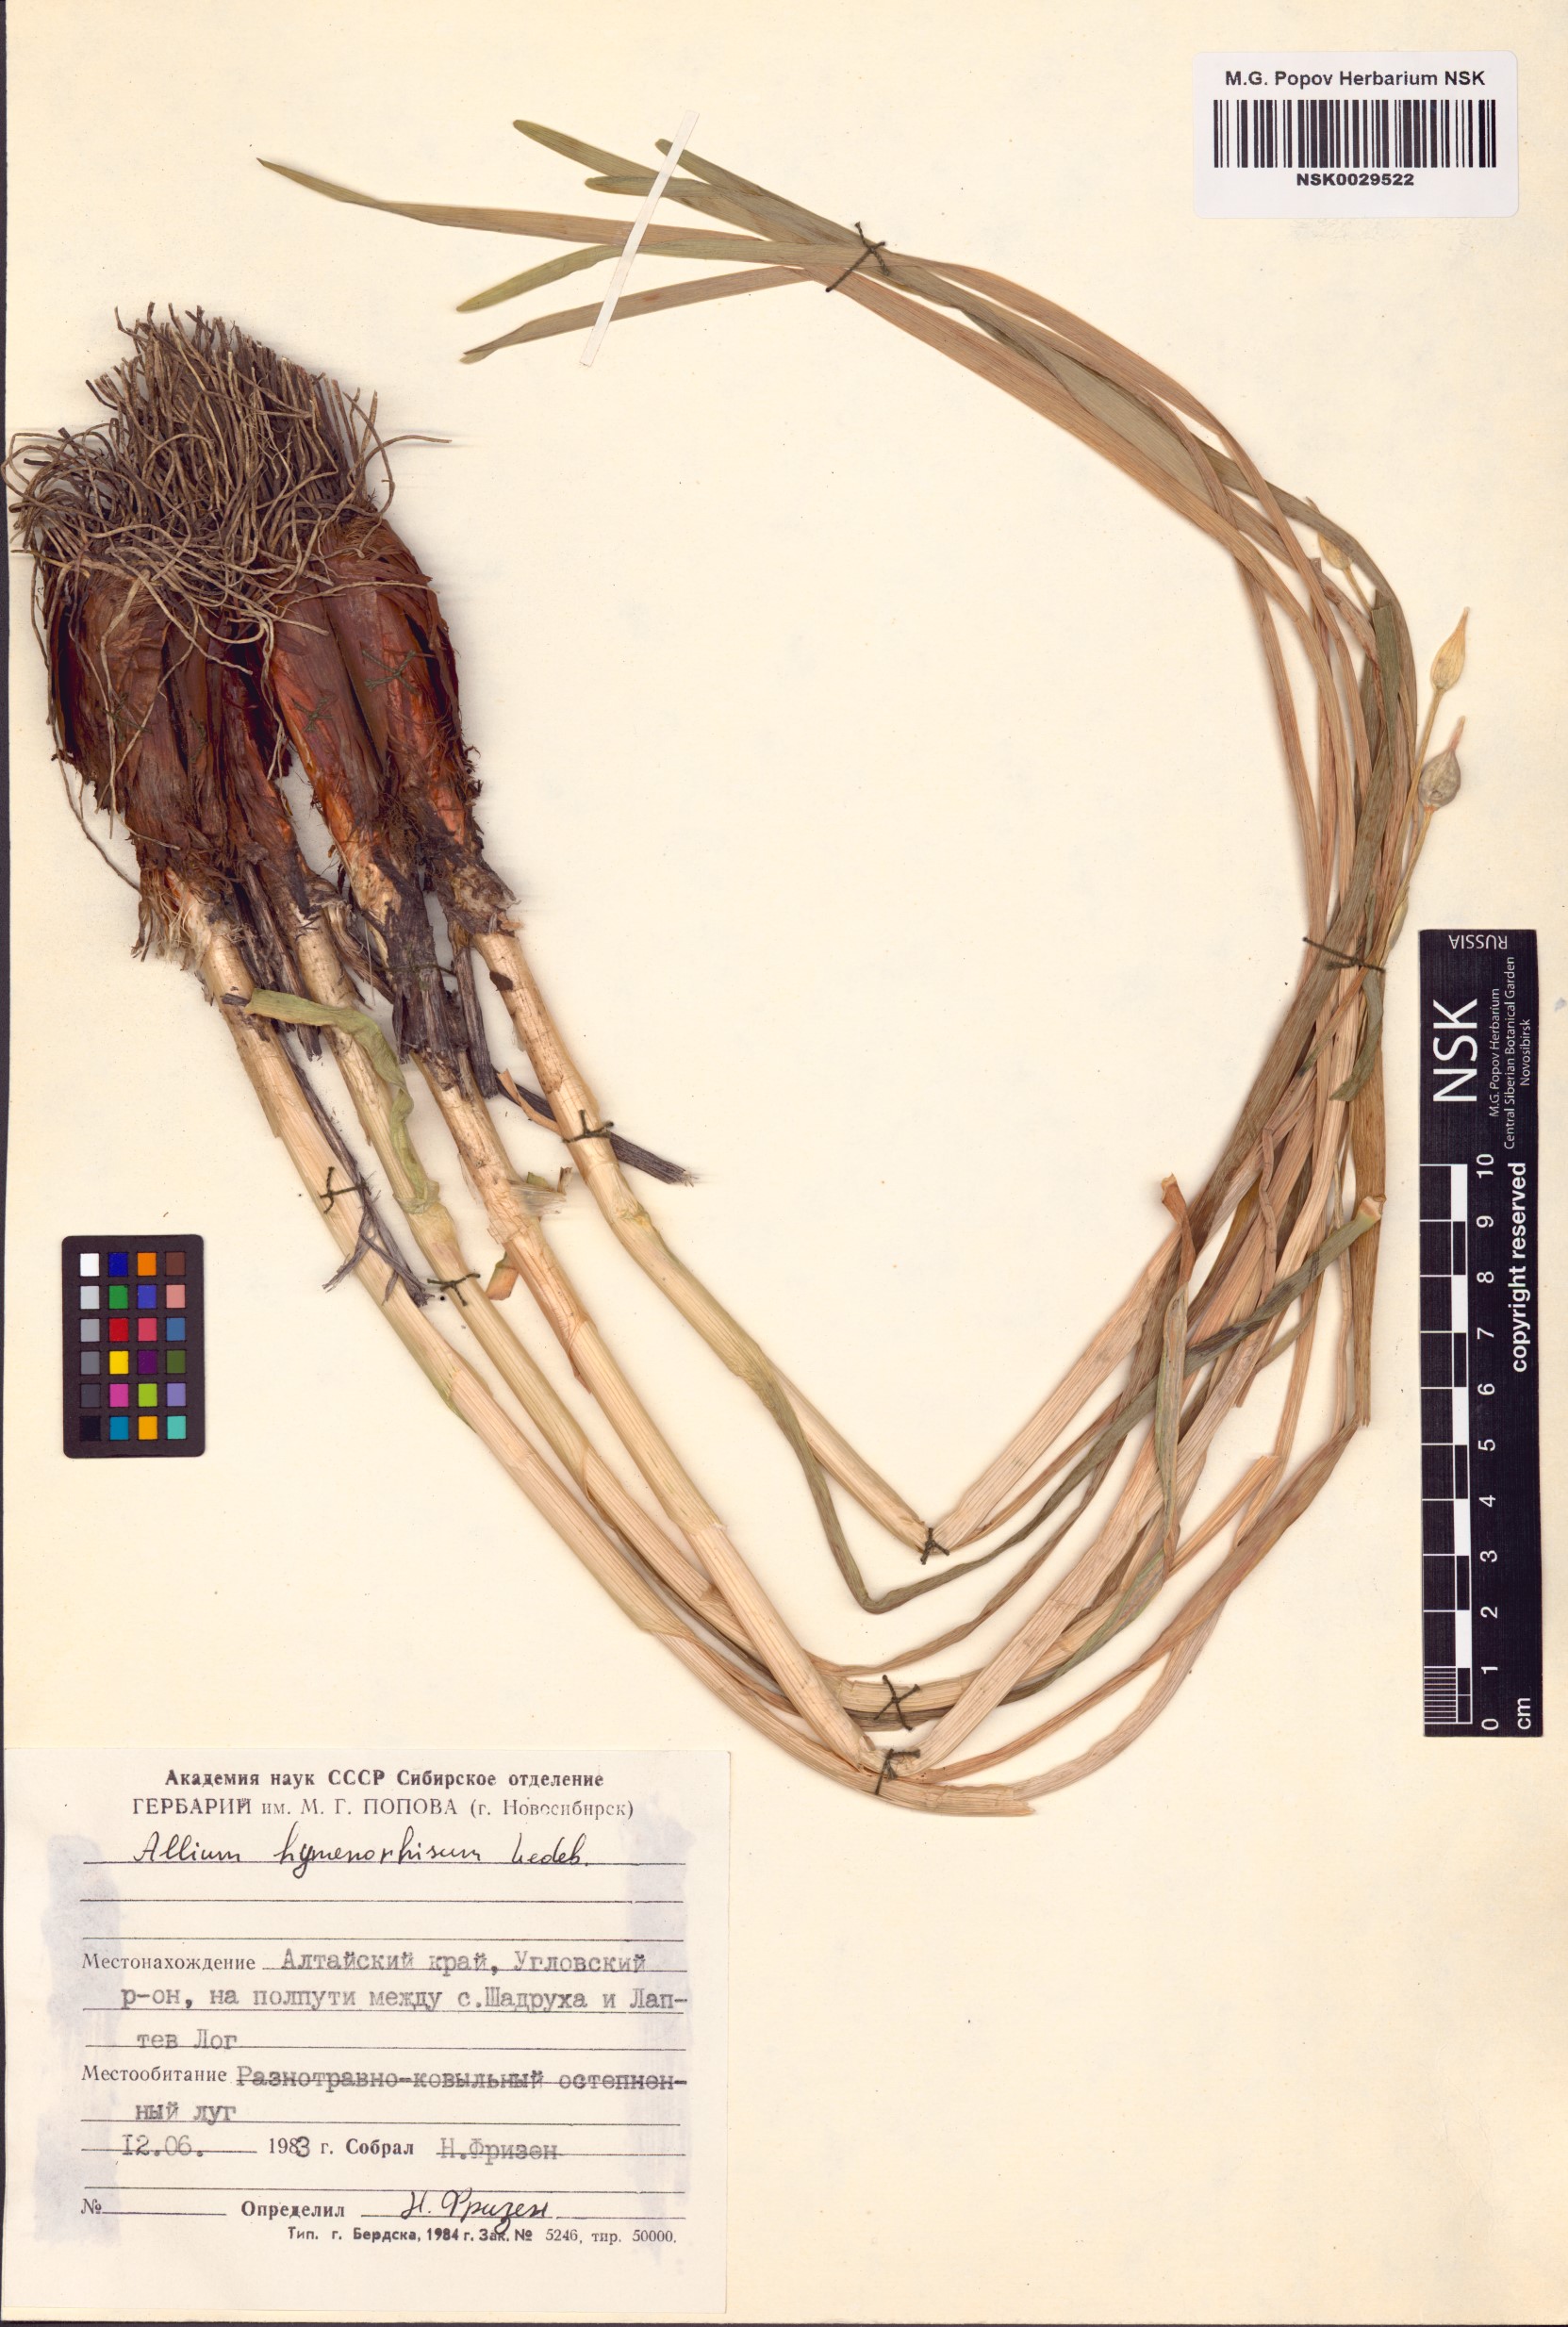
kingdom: Plantae
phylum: Tracheophyta
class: Liliopsida
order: Asparagales
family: Amaryllidaceae
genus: Allium
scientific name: Allium hymenorhizum
